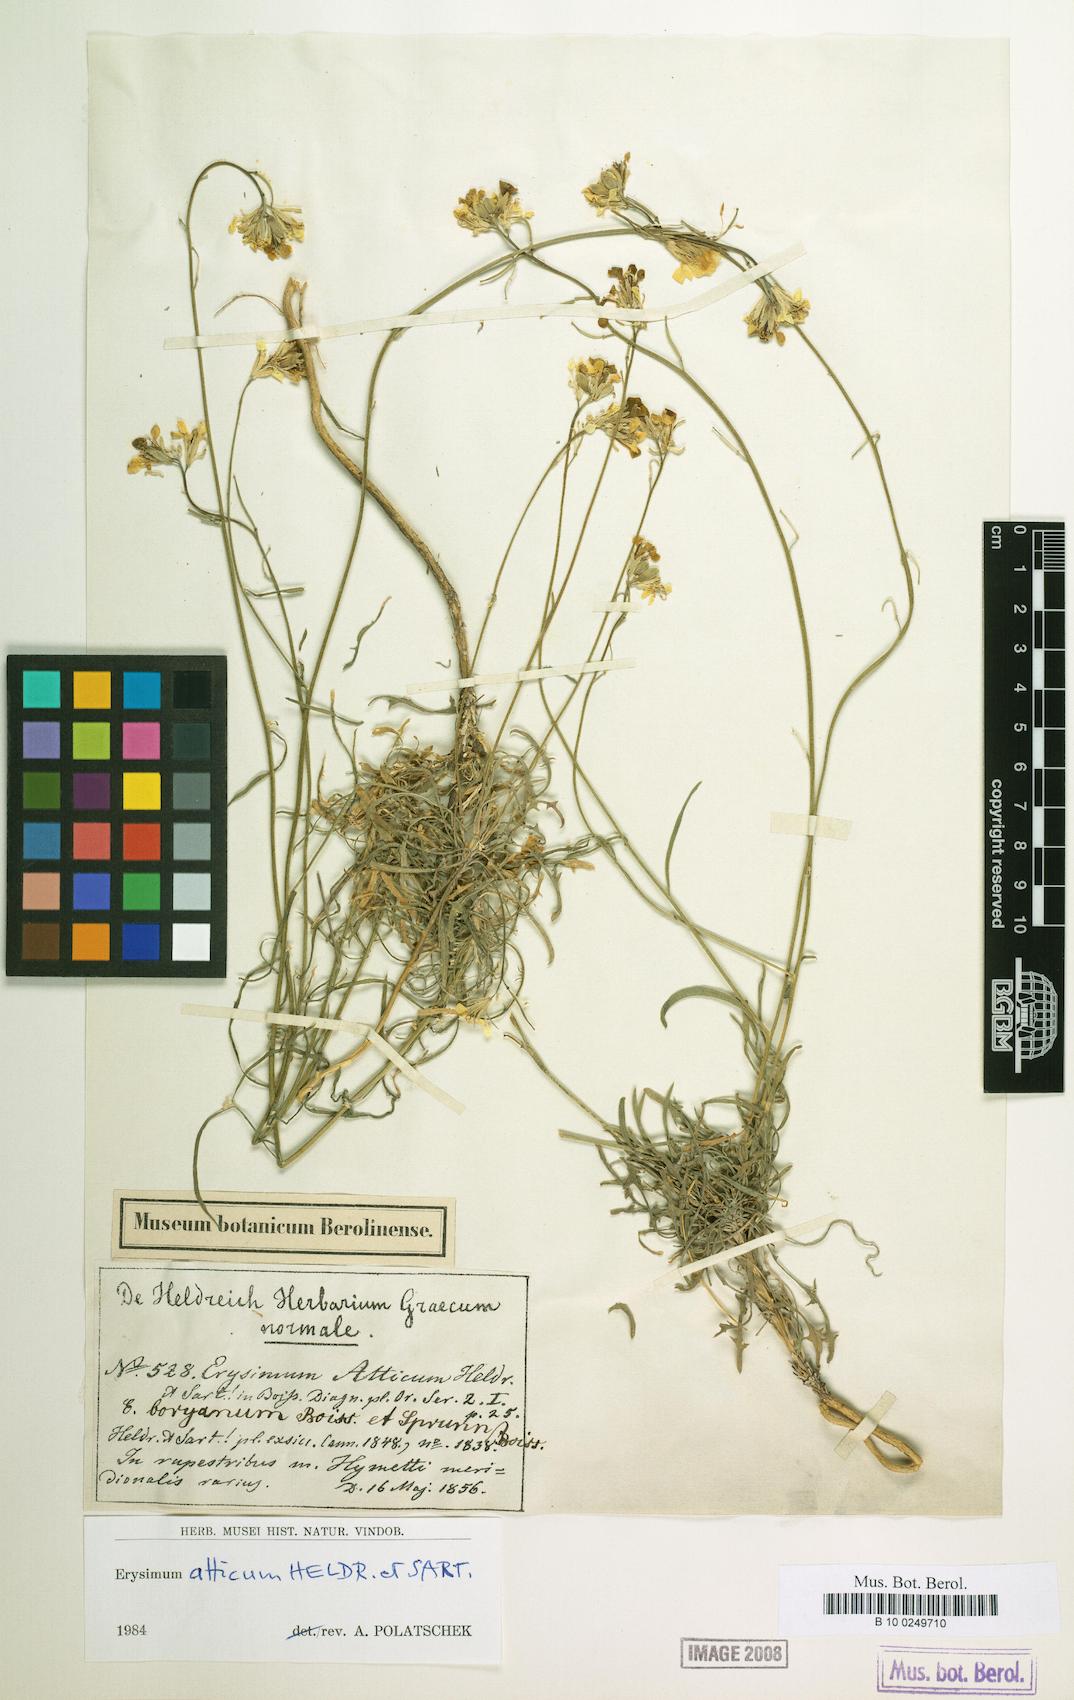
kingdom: Plantae
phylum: Tracheophyta
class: Magnoliopsida
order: Brassicales
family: Brassicaceae
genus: Erysimum
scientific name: Erysimum atticum
